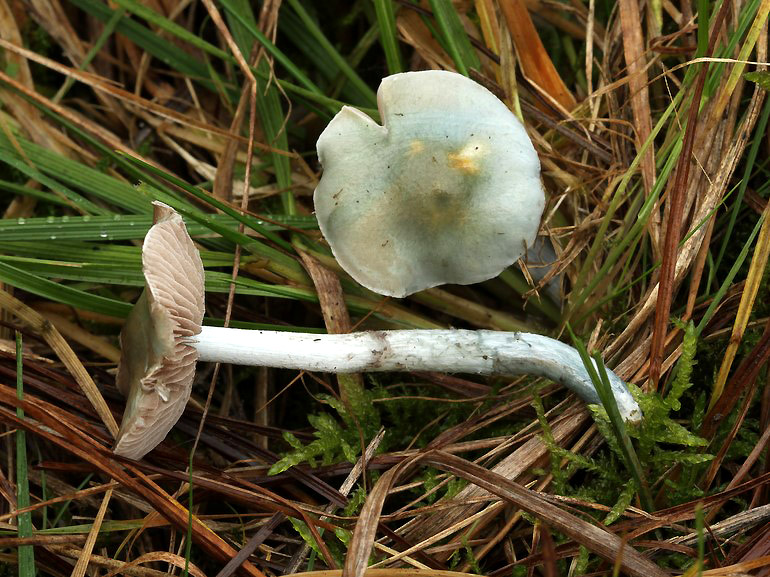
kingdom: Fungi
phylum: Basidiomycota
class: Agaricomycetes
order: Agaricales
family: Strophariaceae
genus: Stropharia
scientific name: Stropharia pseudocyanea
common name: blegblå bredblad
